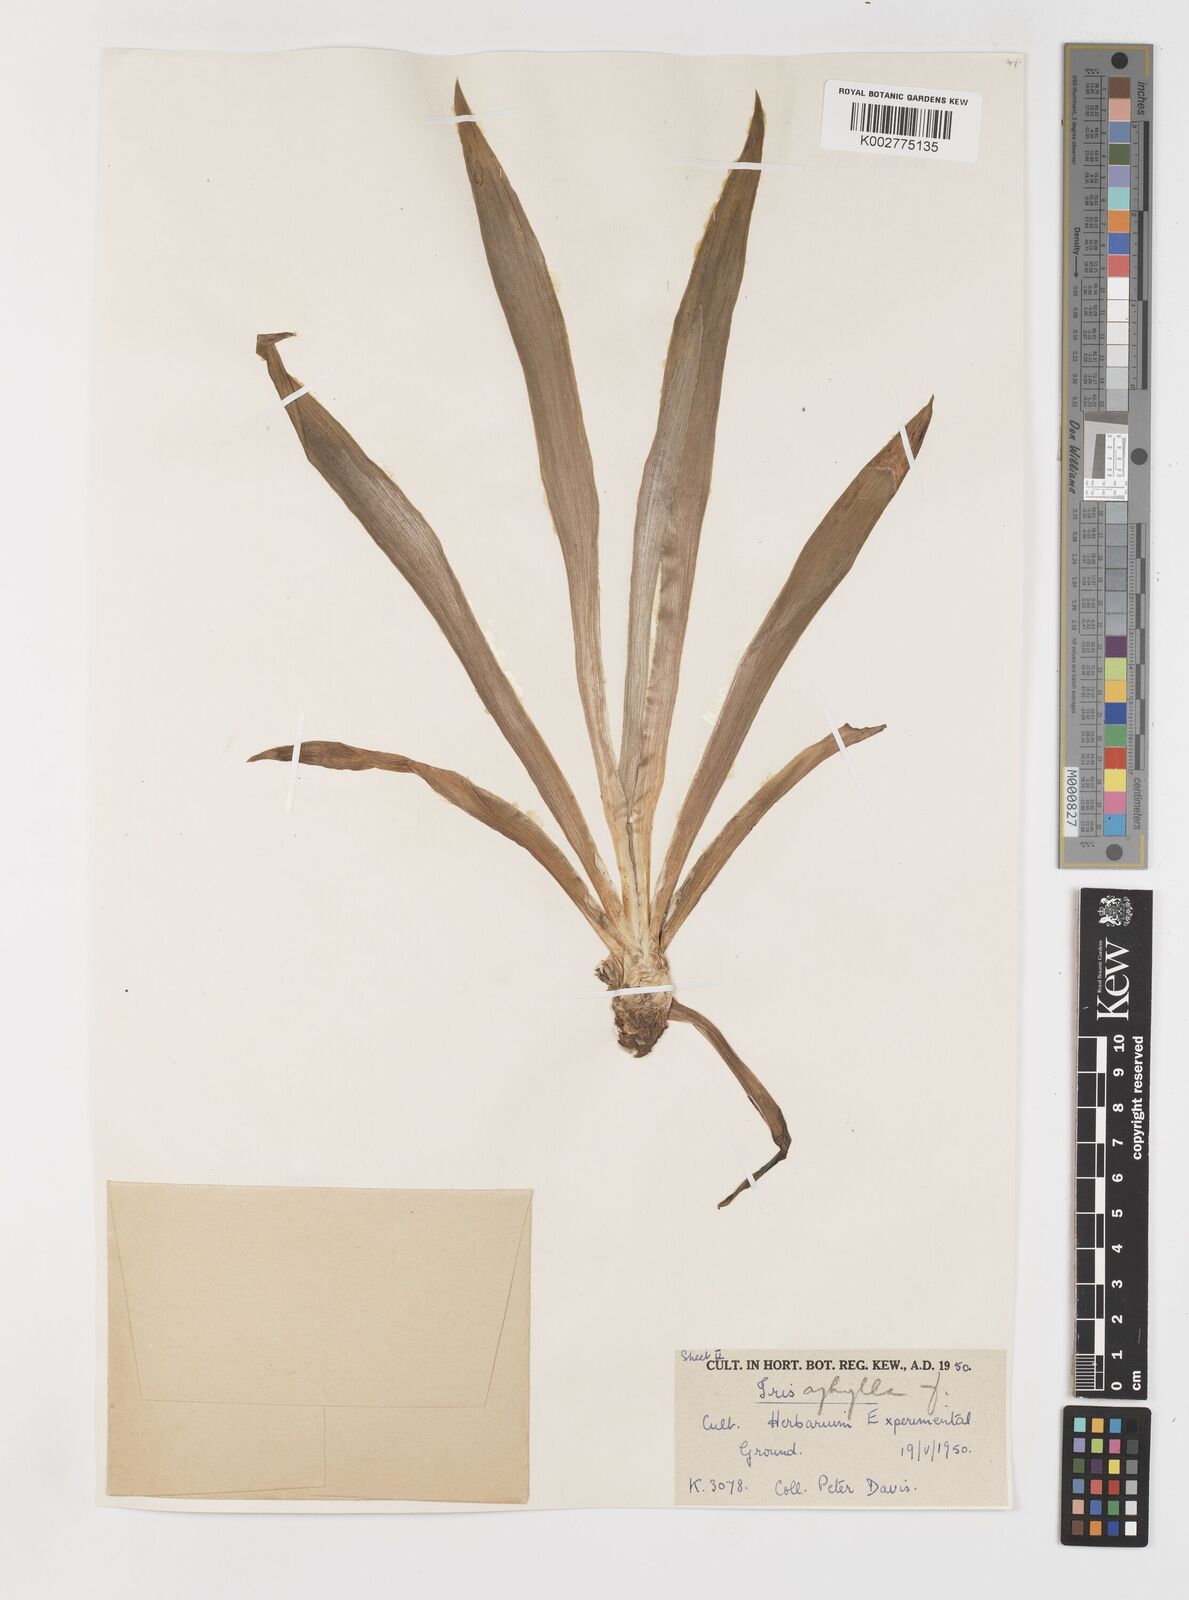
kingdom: Plantae
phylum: Tracheophyta
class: Liliopsida
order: Asparagales
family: Iridaceae
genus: Iris
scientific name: Iris schachtii
